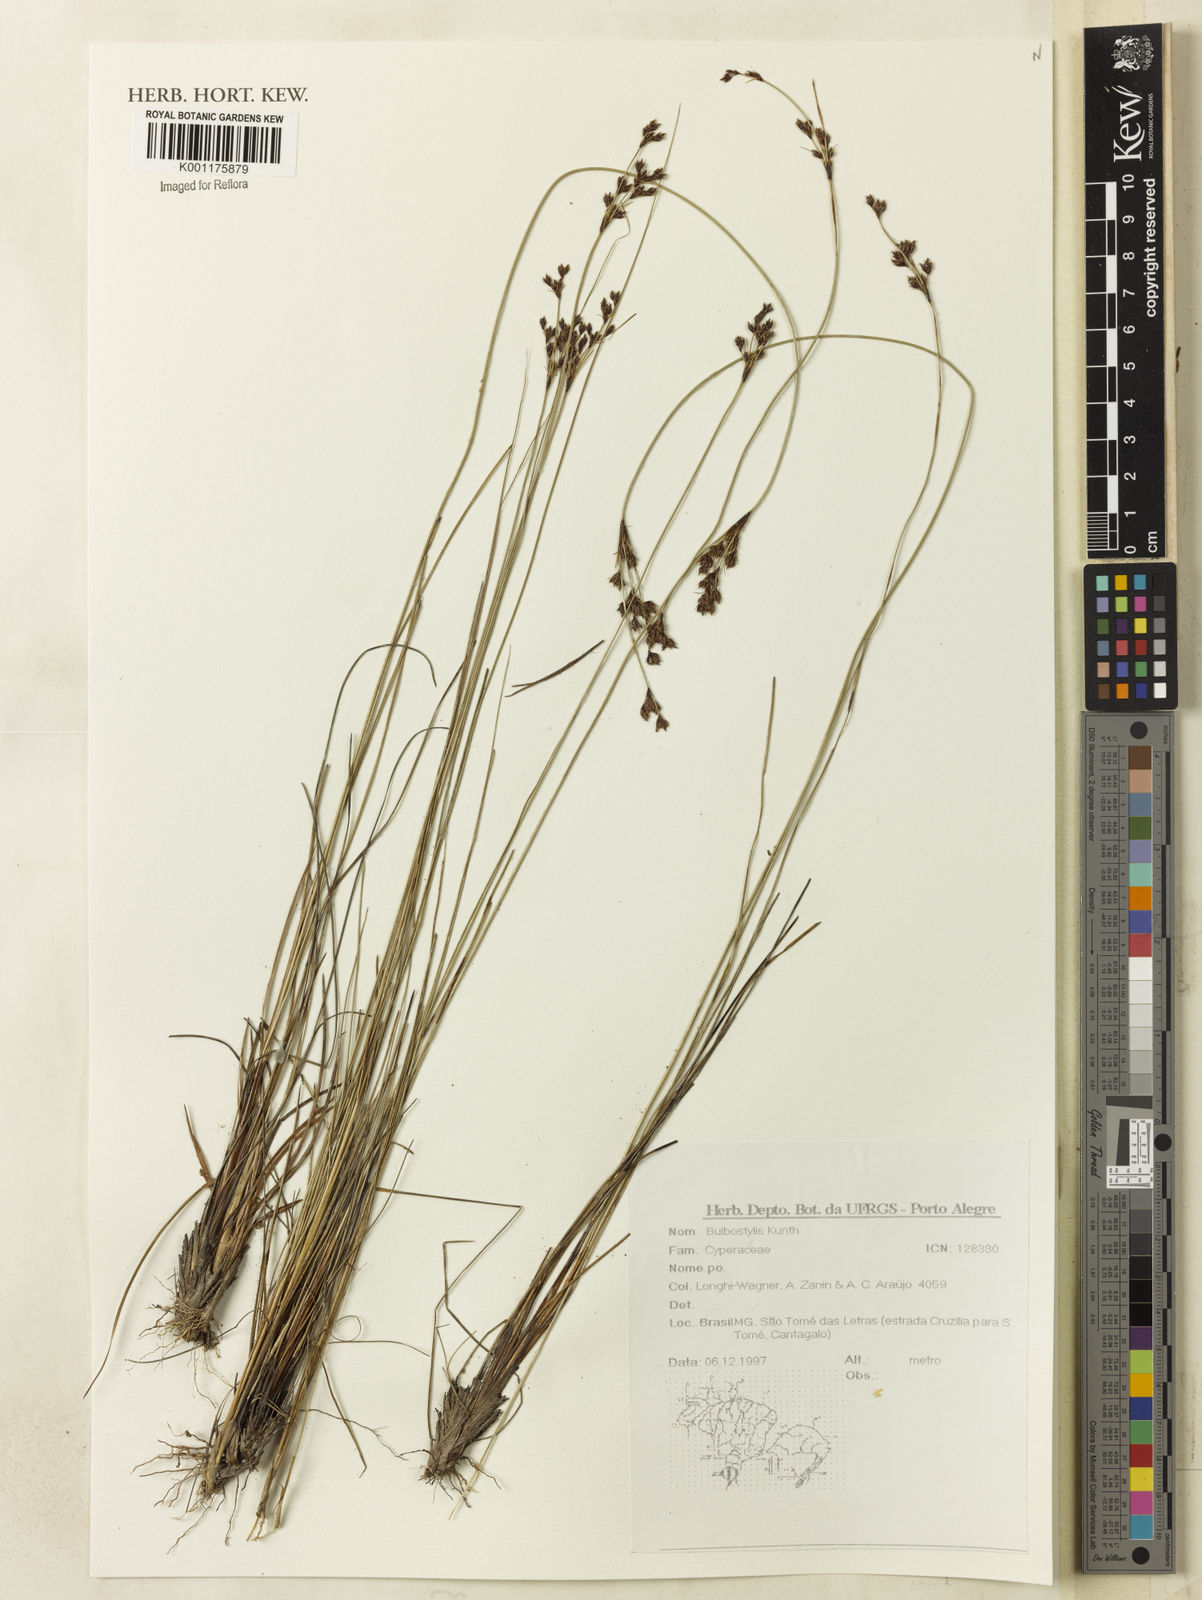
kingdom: Plantae
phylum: Tracheophyta
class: Liliopsida
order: Poales
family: Cyperaceae
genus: Bulbostylis
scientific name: Bulbostylis
